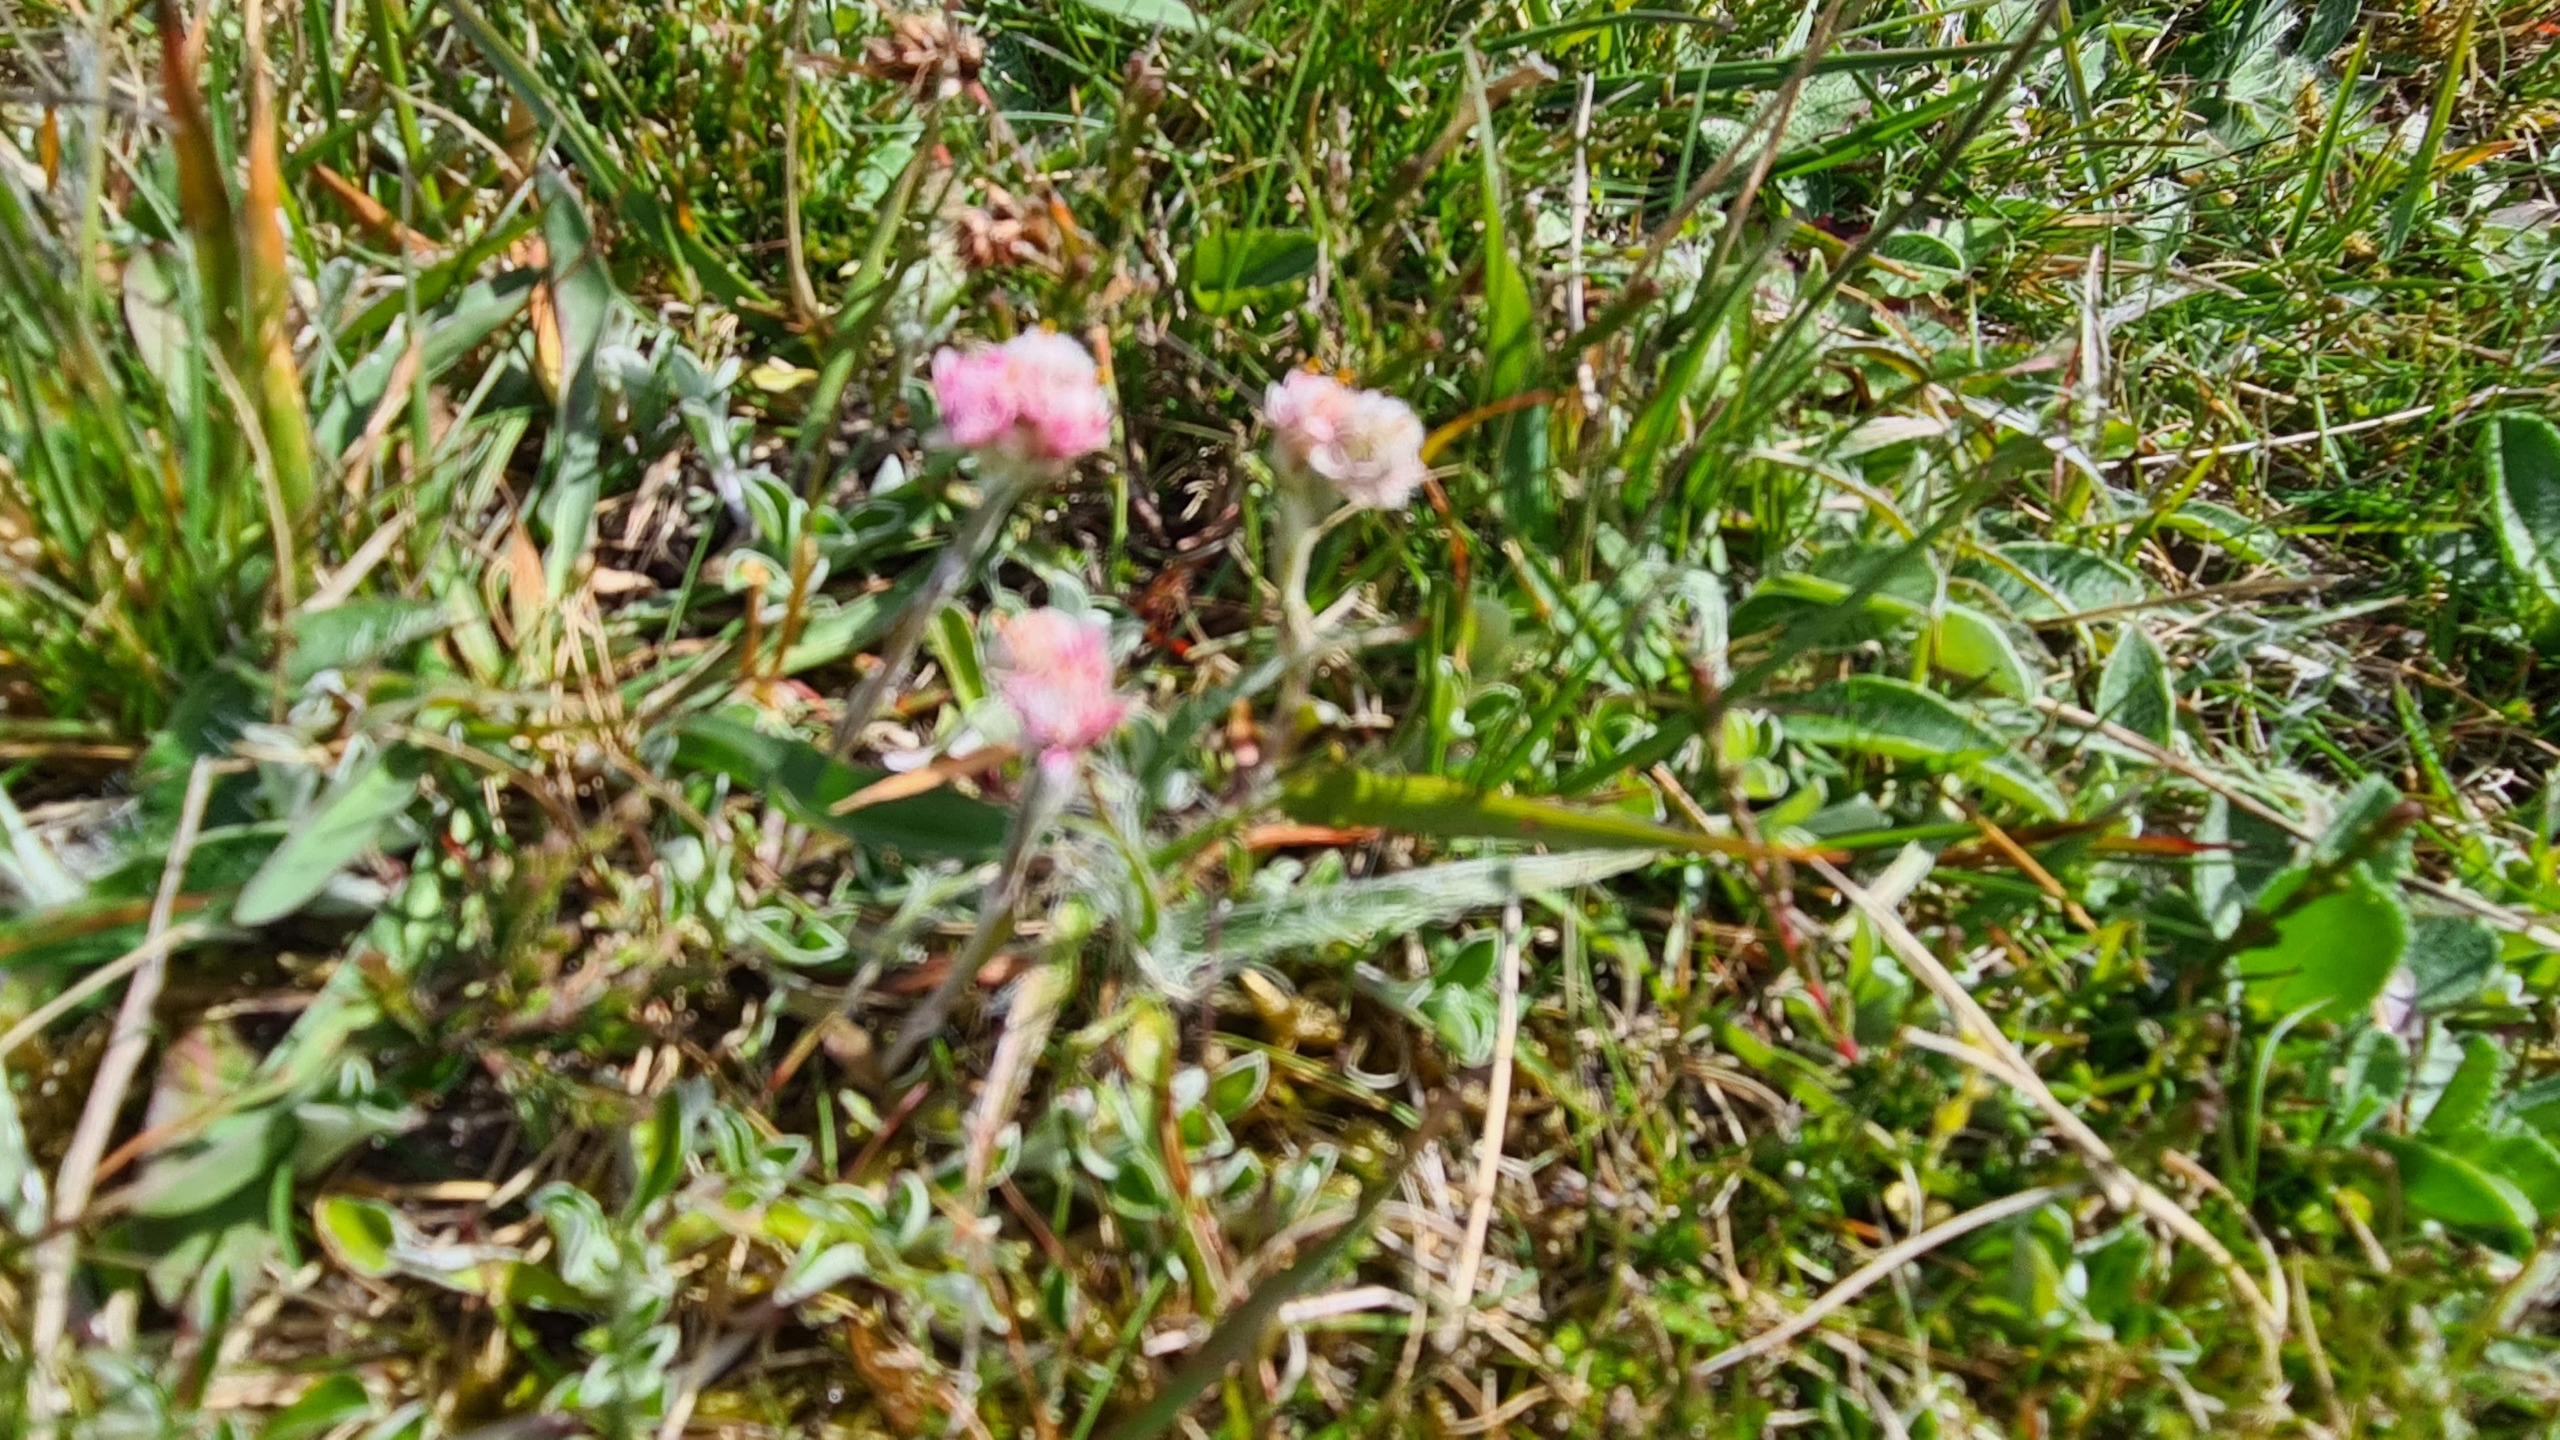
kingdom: Plantae
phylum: Tracheophyta
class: Magnoliopsida
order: Asterales
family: Asteraceae
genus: Antennaria
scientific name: Antennaria dioica
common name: Kattefod
